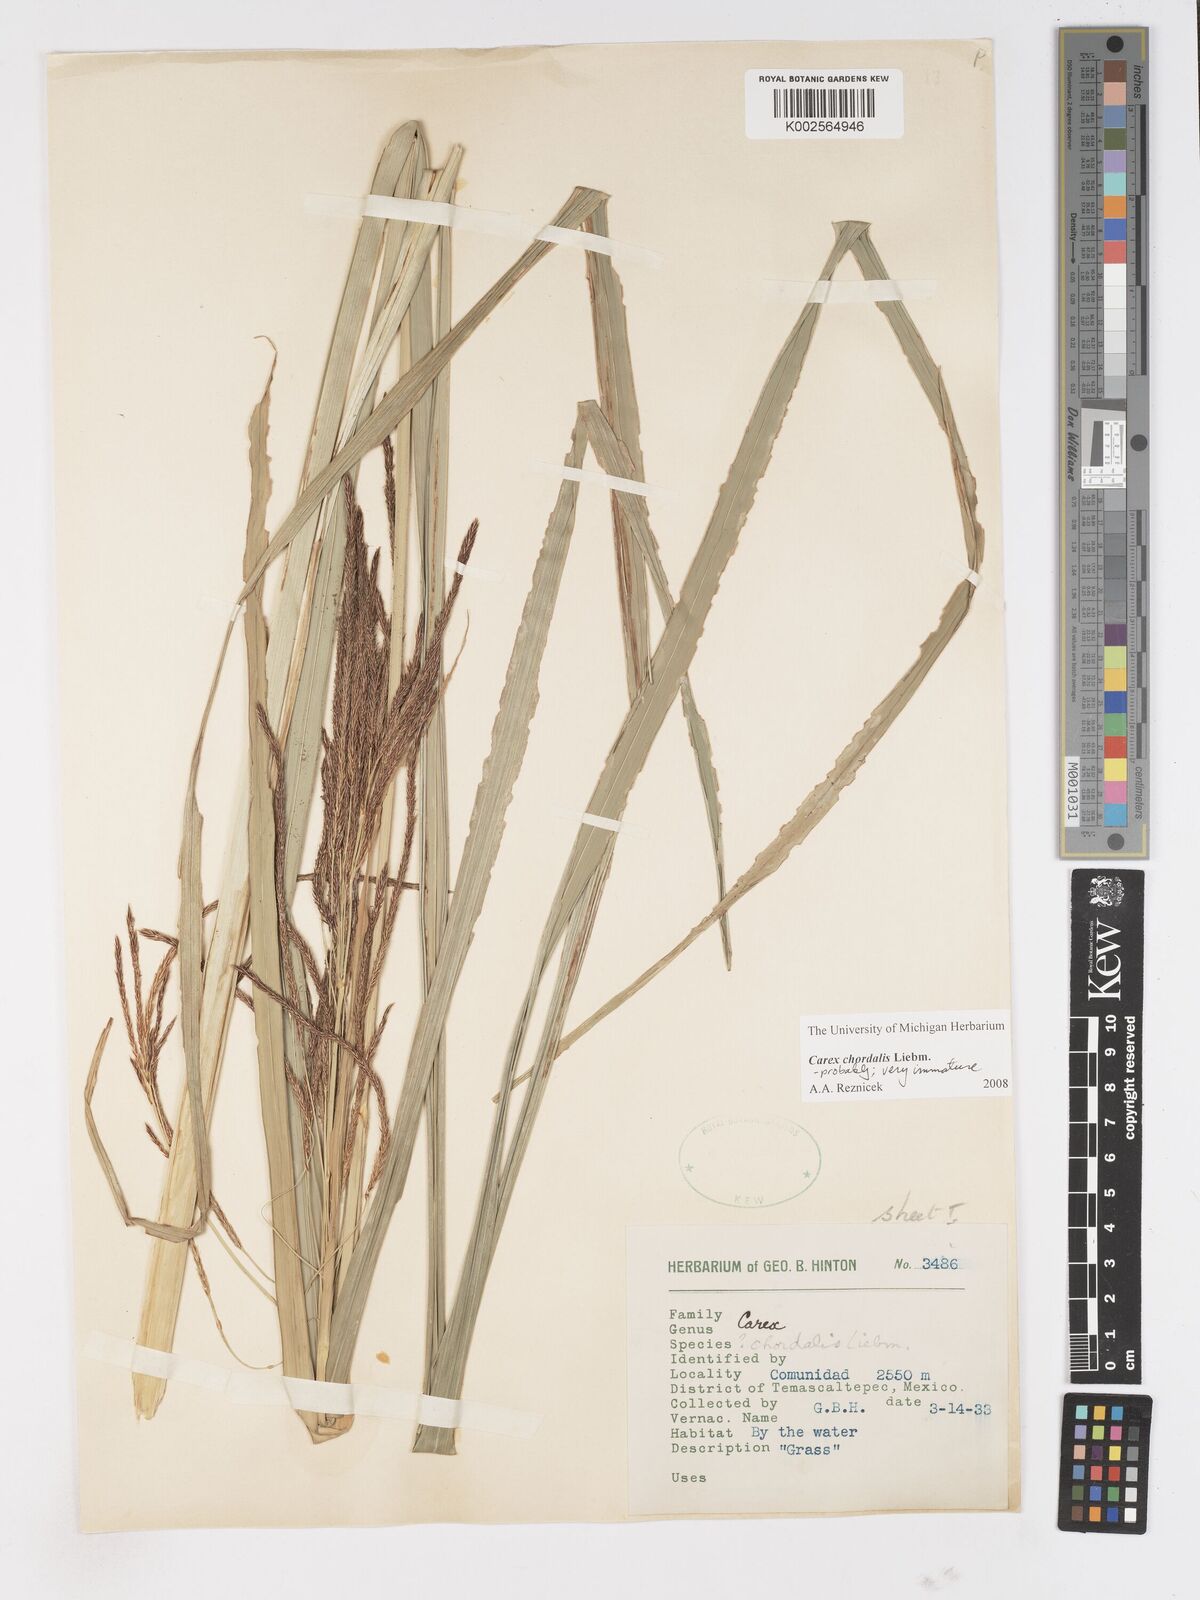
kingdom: Plantae
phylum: Tracheophyta
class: Liliopsida
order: Poales
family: Cyperaceae
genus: Carex
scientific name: Carex chordalis
